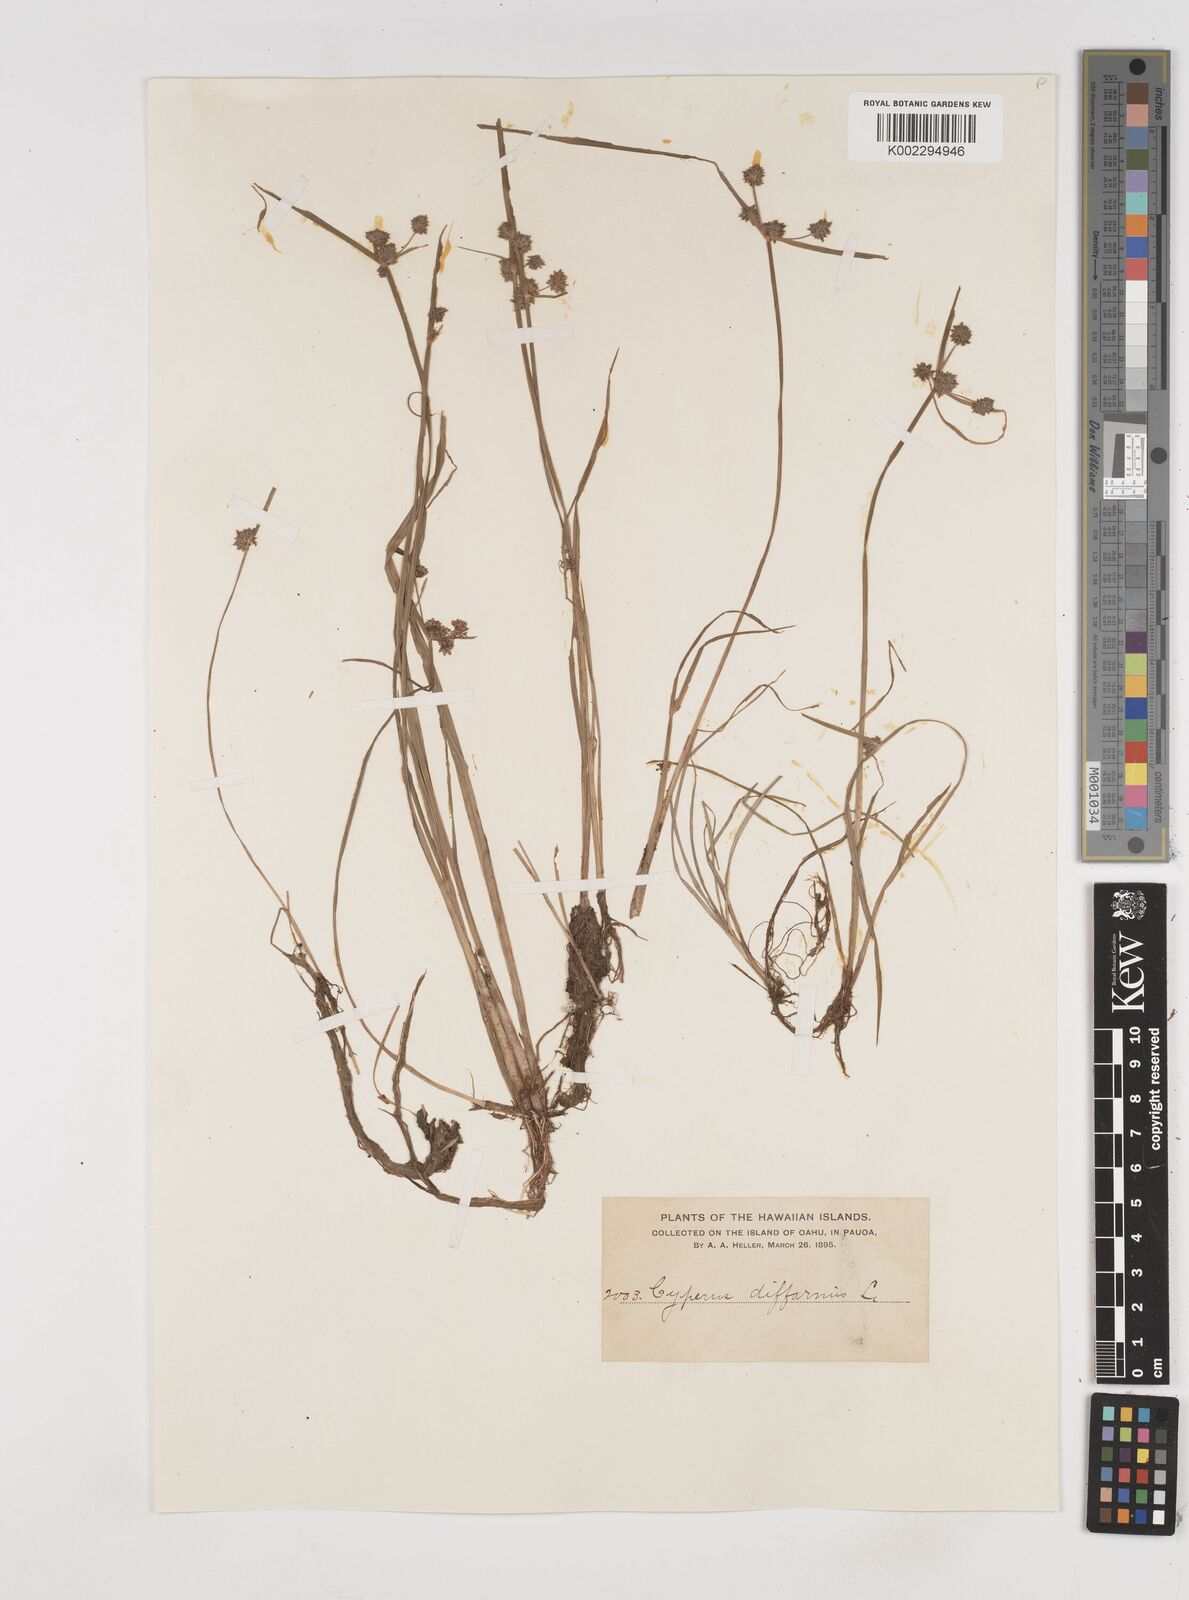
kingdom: Plantae
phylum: Tracheophyta
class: Liliopsida
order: Poales
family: Cyperaceae
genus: Cyperus
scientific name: Cyperus difformis
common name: Variable flatsedge
